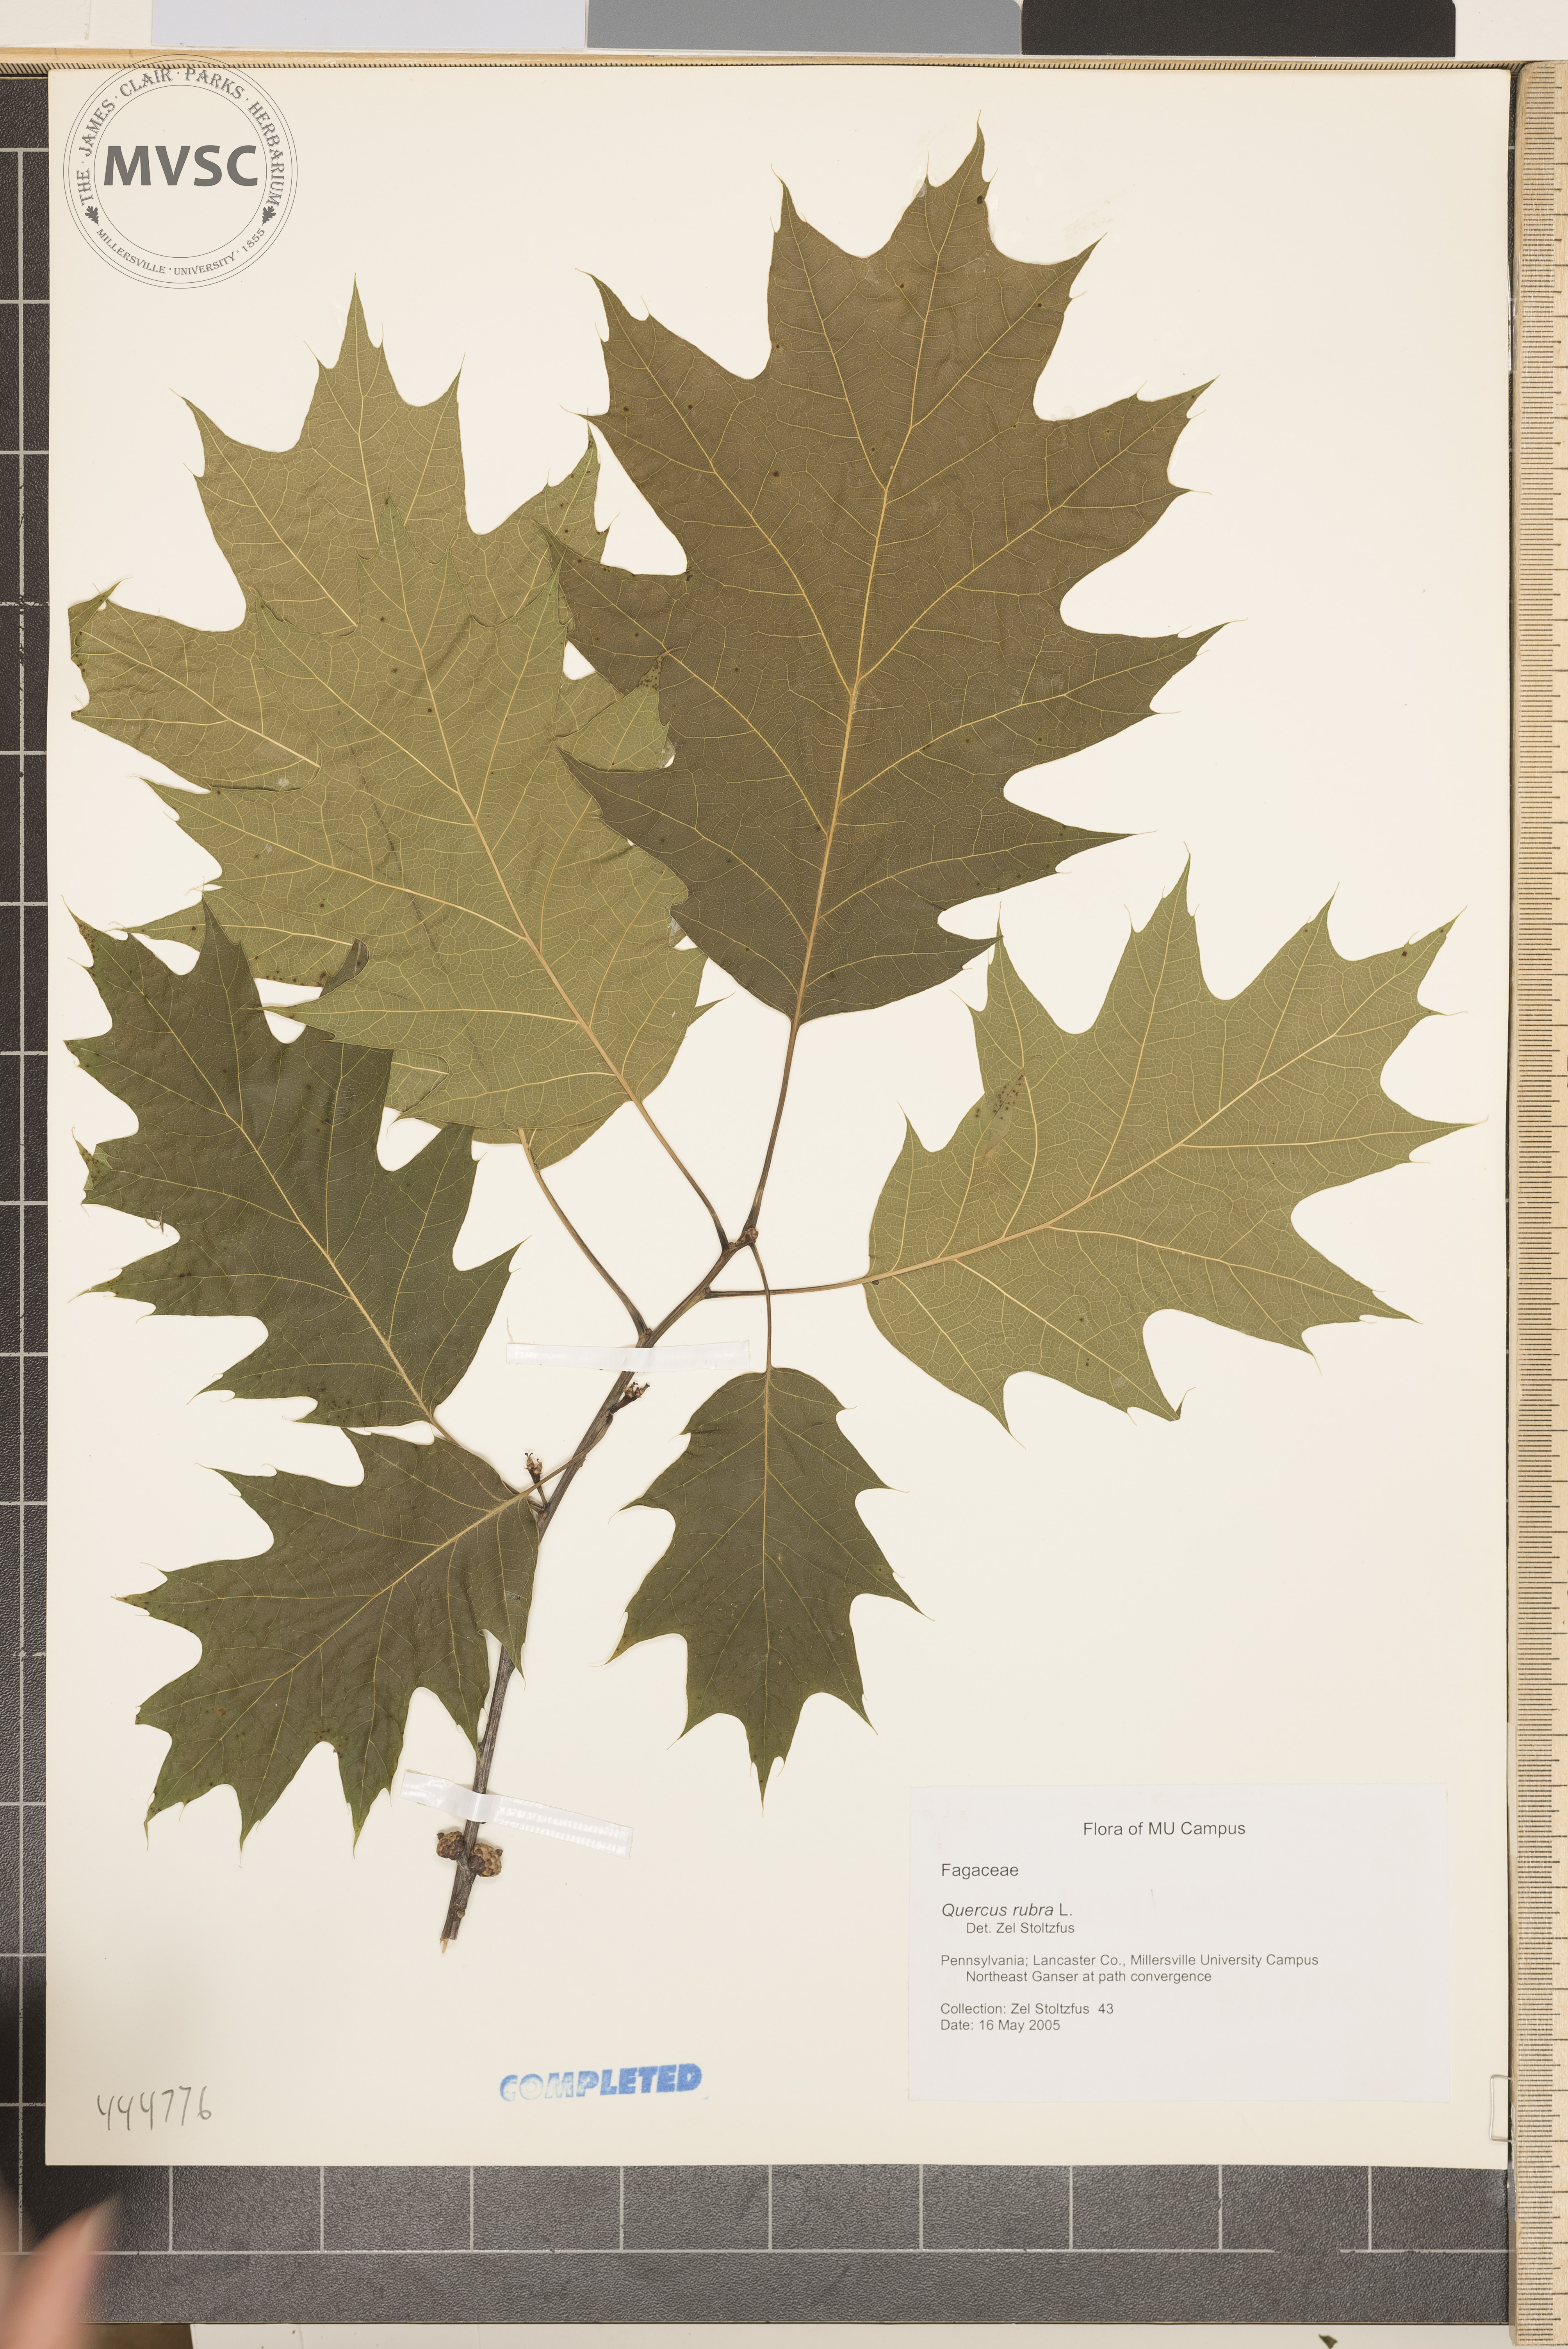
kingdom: Plantae
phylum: Tracheophyta
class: Magnoliopsida
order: Fagales
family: Fagaceae
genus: Quercus
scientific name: Quercus rubra
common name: Red Oak
